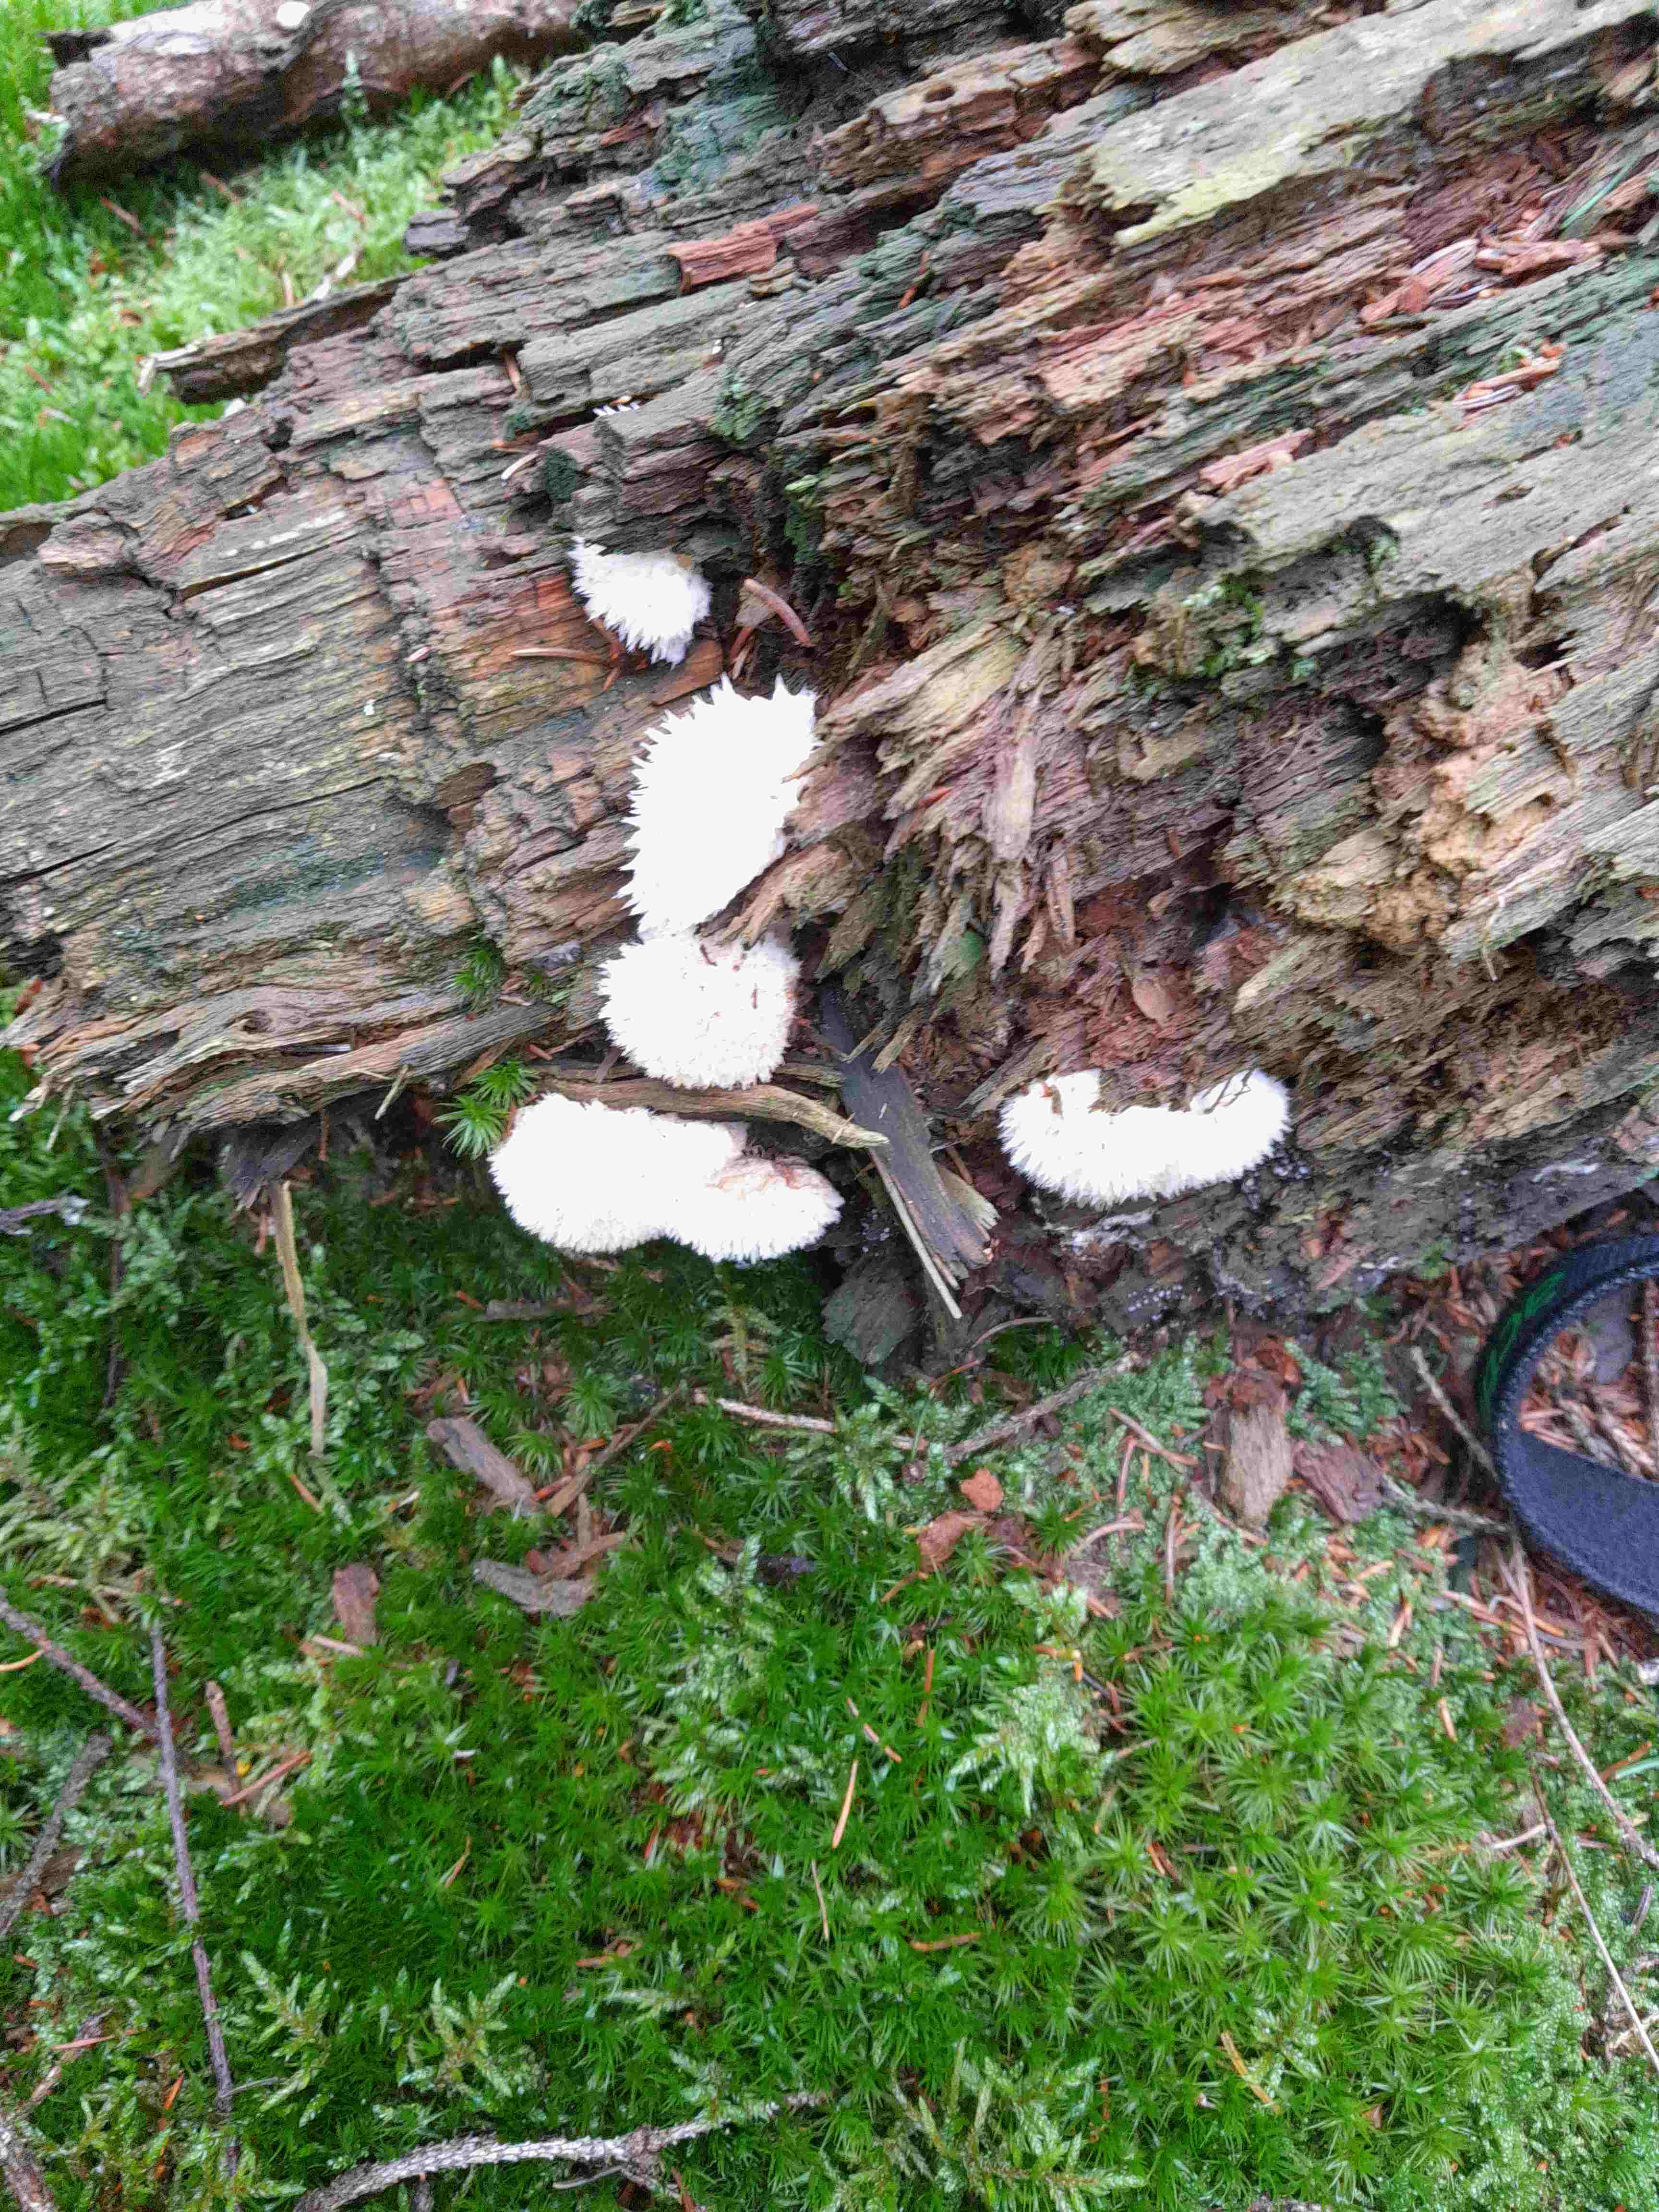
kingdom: Fungi
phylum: Basidiomycota
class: Agaricomycetes
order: Polyporales
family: Dacryobolaceae
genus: Postia
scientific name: Postia ptychogaster
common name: støvende kødporesvamp
